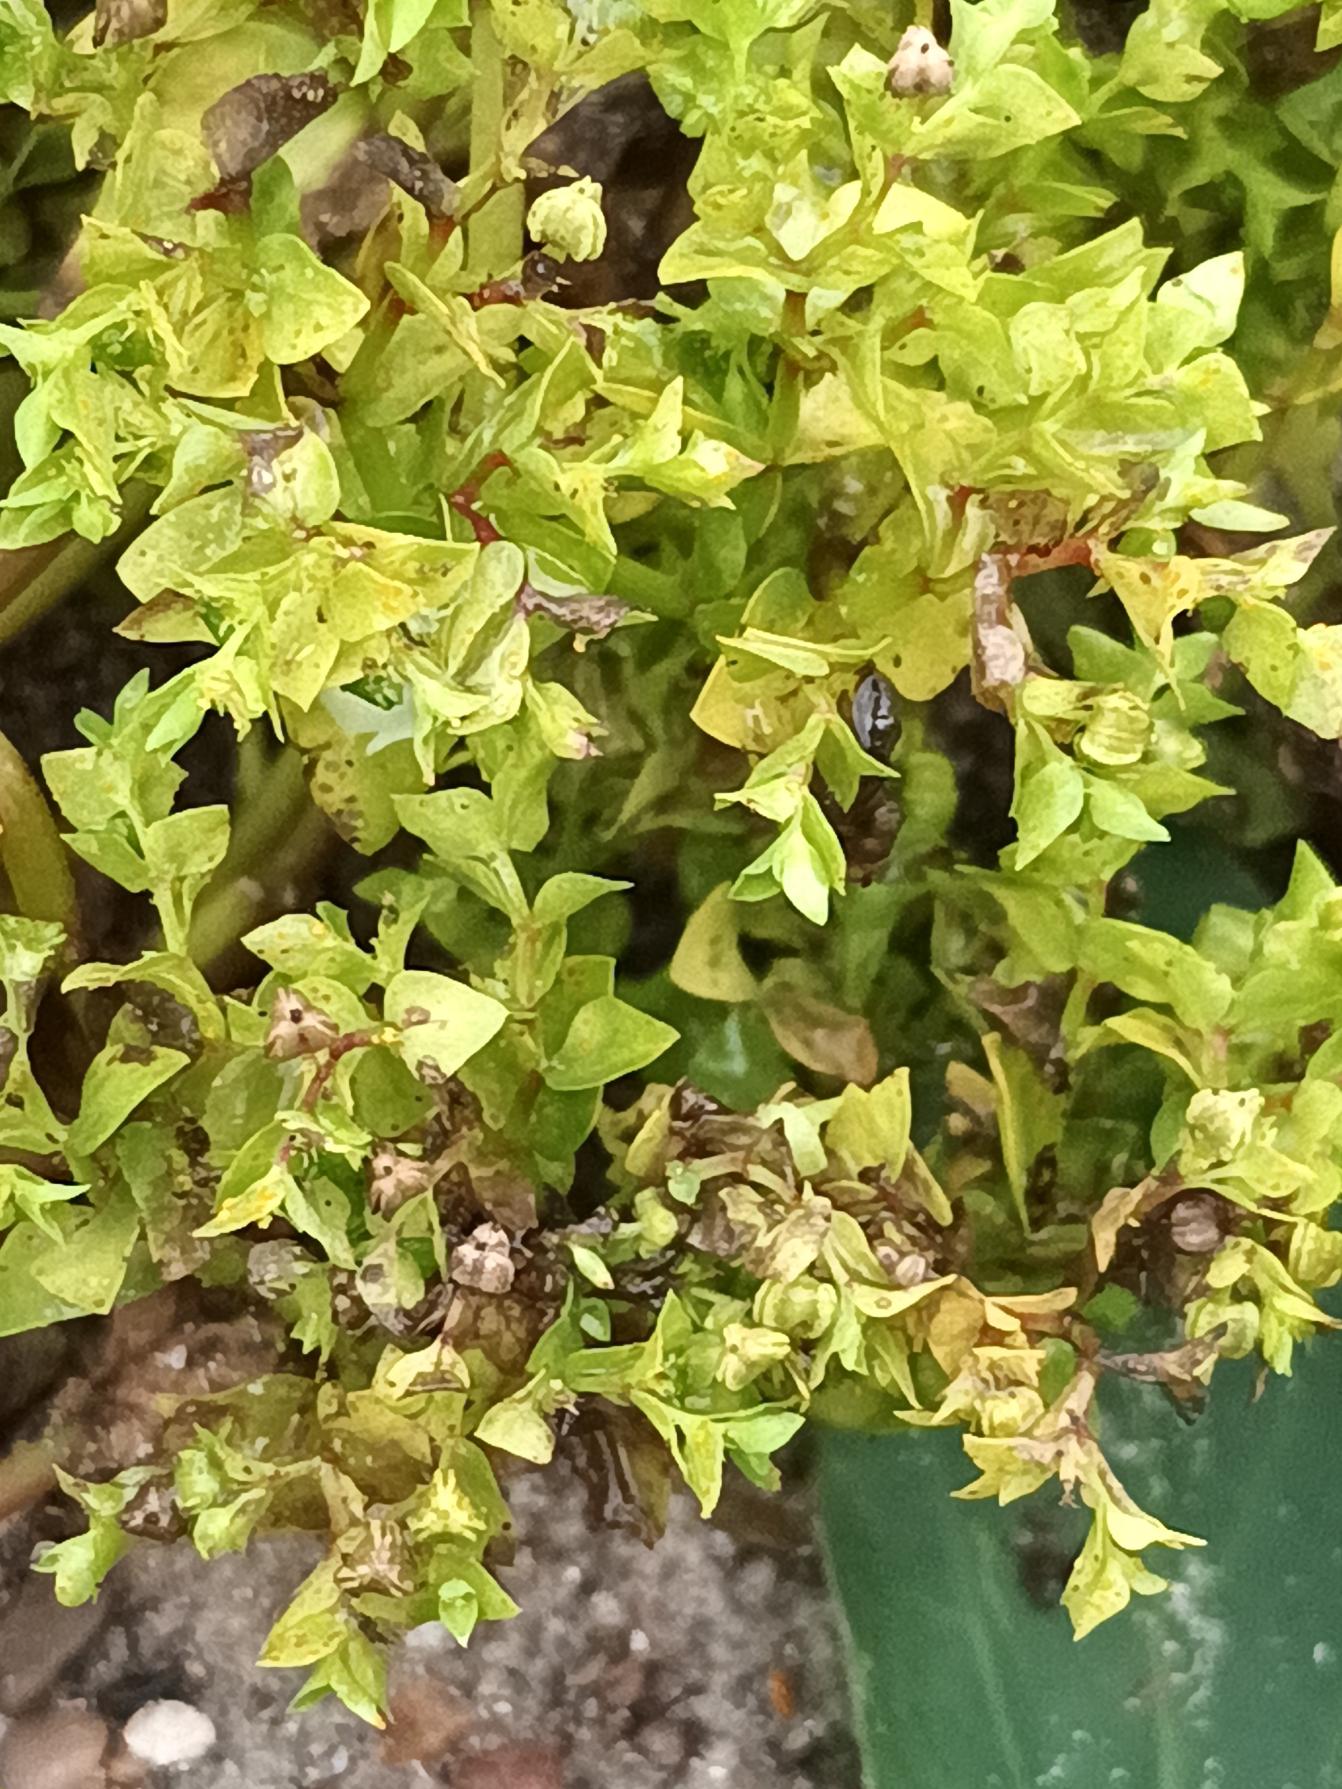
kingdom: Plantae
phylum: Tracheophyta
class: Magnoliopsida
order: Malpighiales
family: Euphorbiaceae
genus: Euphorbia
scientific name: Euphorbia peplus
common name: Gaffel-vortemælk
